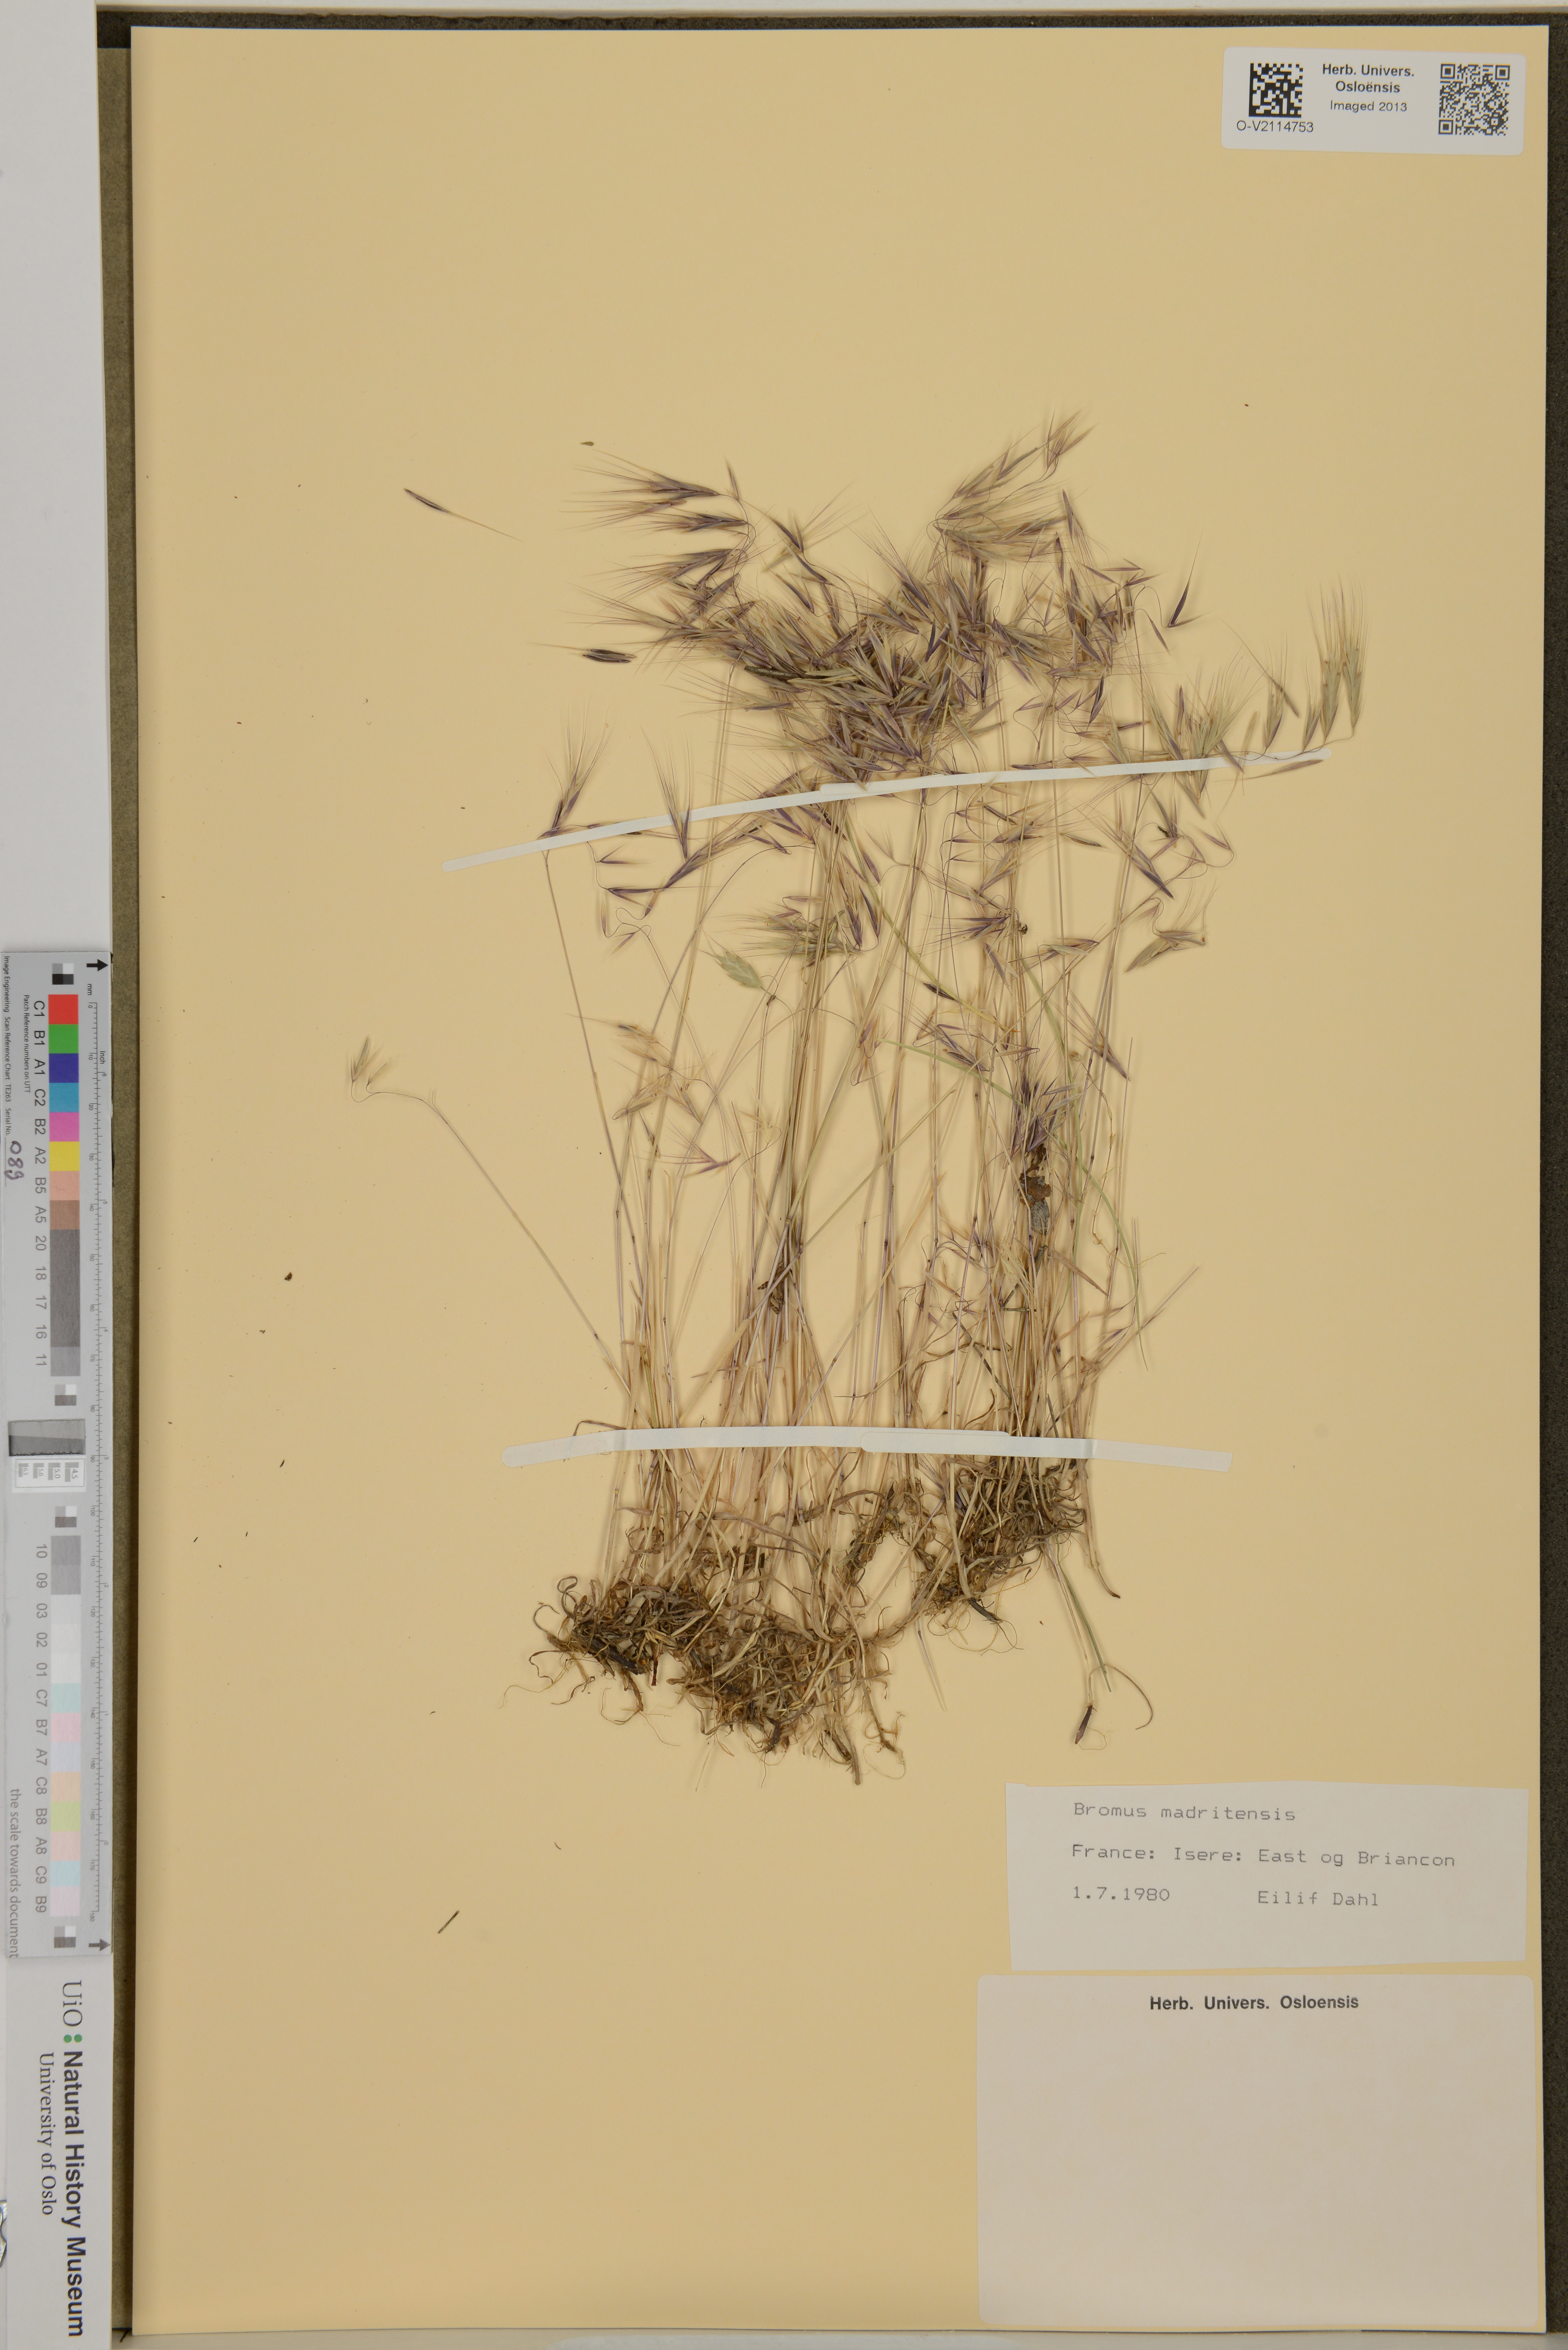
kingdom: Plantae
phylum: Tracheophyta
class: Liliopsida
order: Poales
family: Poaceae
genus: Bromus
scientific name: Bromus madritensis
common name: Compact brome
